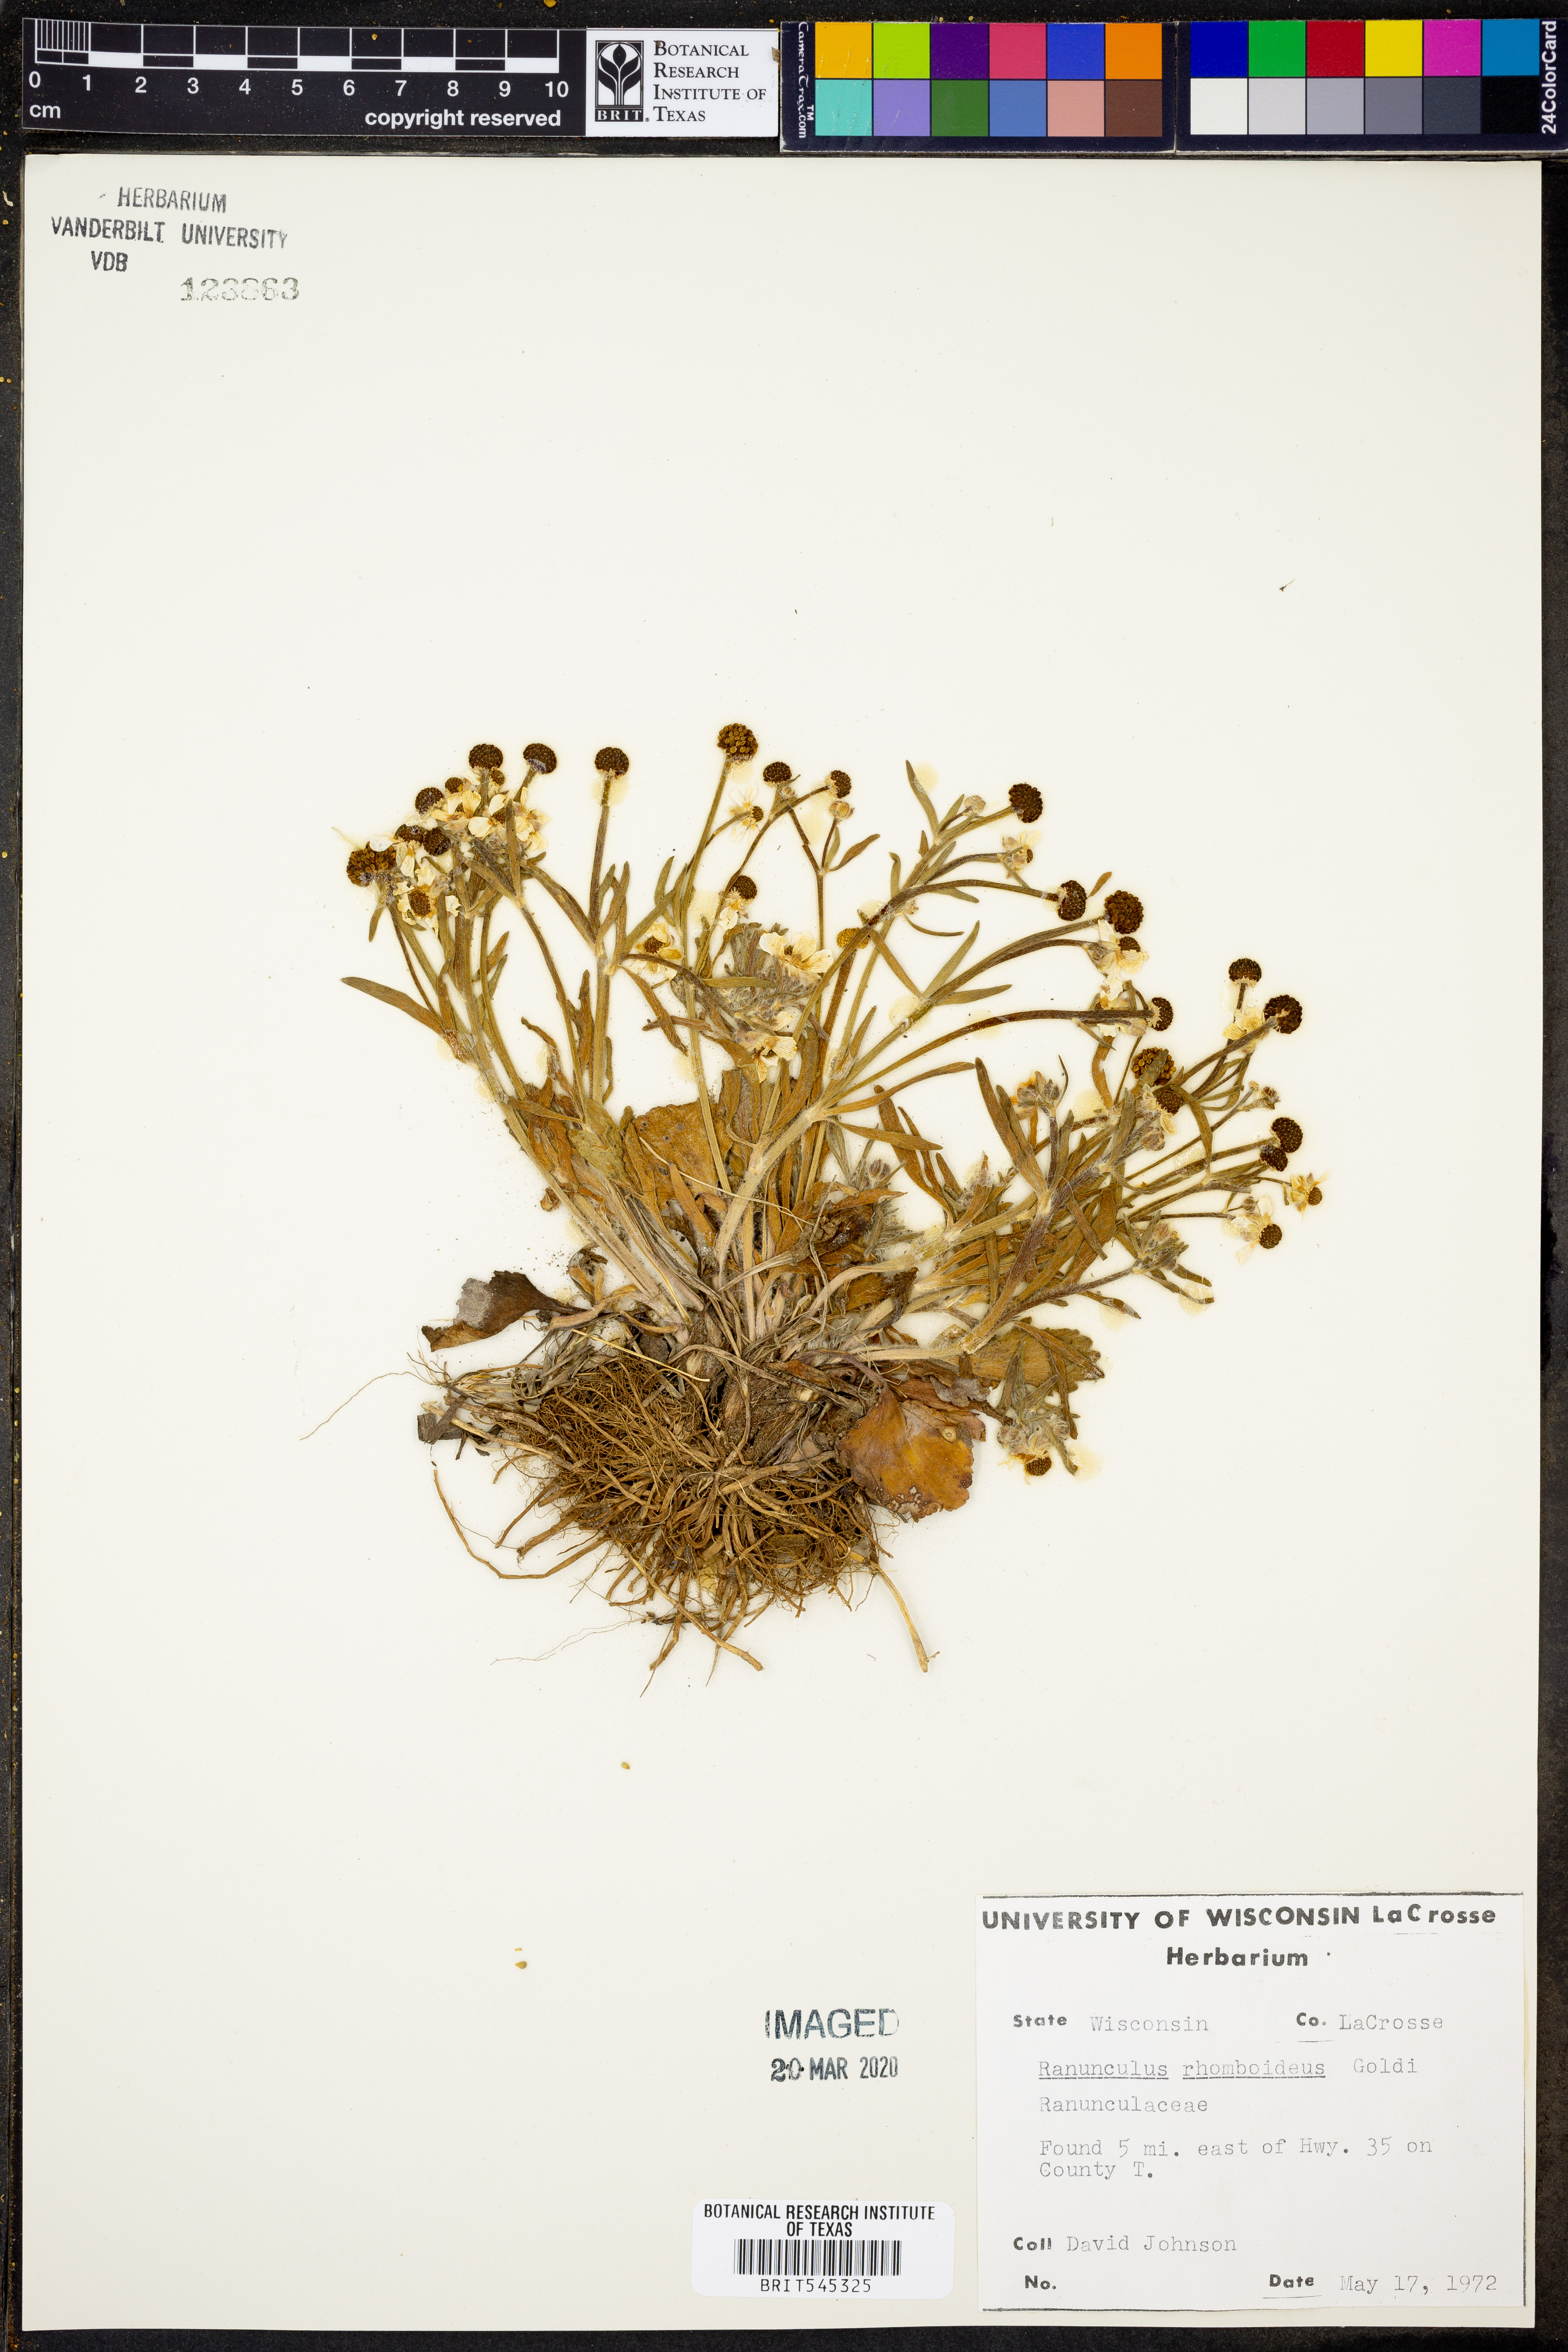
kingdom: Plantae
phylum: Tracheophyta
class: Magnoliopsida
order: Ranunculales
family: Ranunculaceae
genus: Ranunculus
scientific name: Ranunculus rhomboideus
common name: Prairie buttercup
